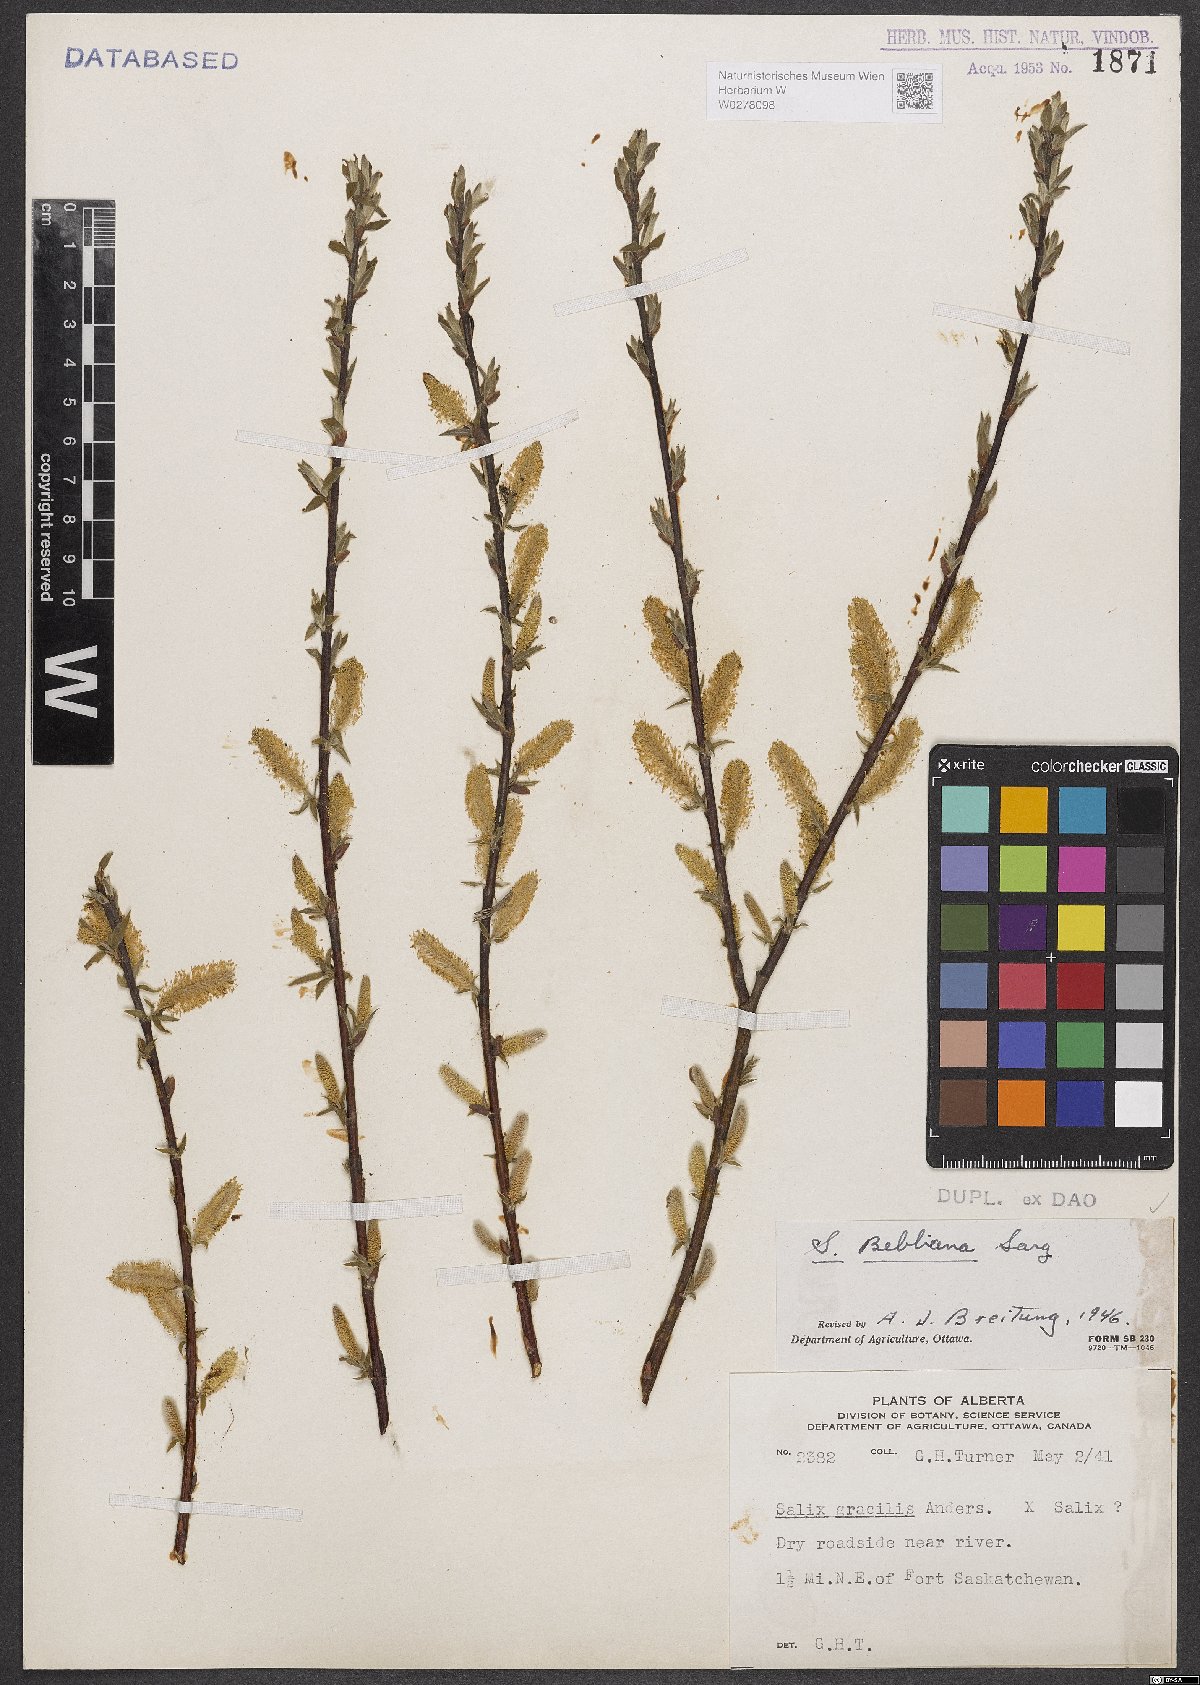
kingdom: Plantae
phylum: Tracheophyta
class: Magnoliopsida
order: Malpighiales
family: Salicaceae
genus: Salix
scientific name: Salix bebbiana
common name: Bebb's willow
